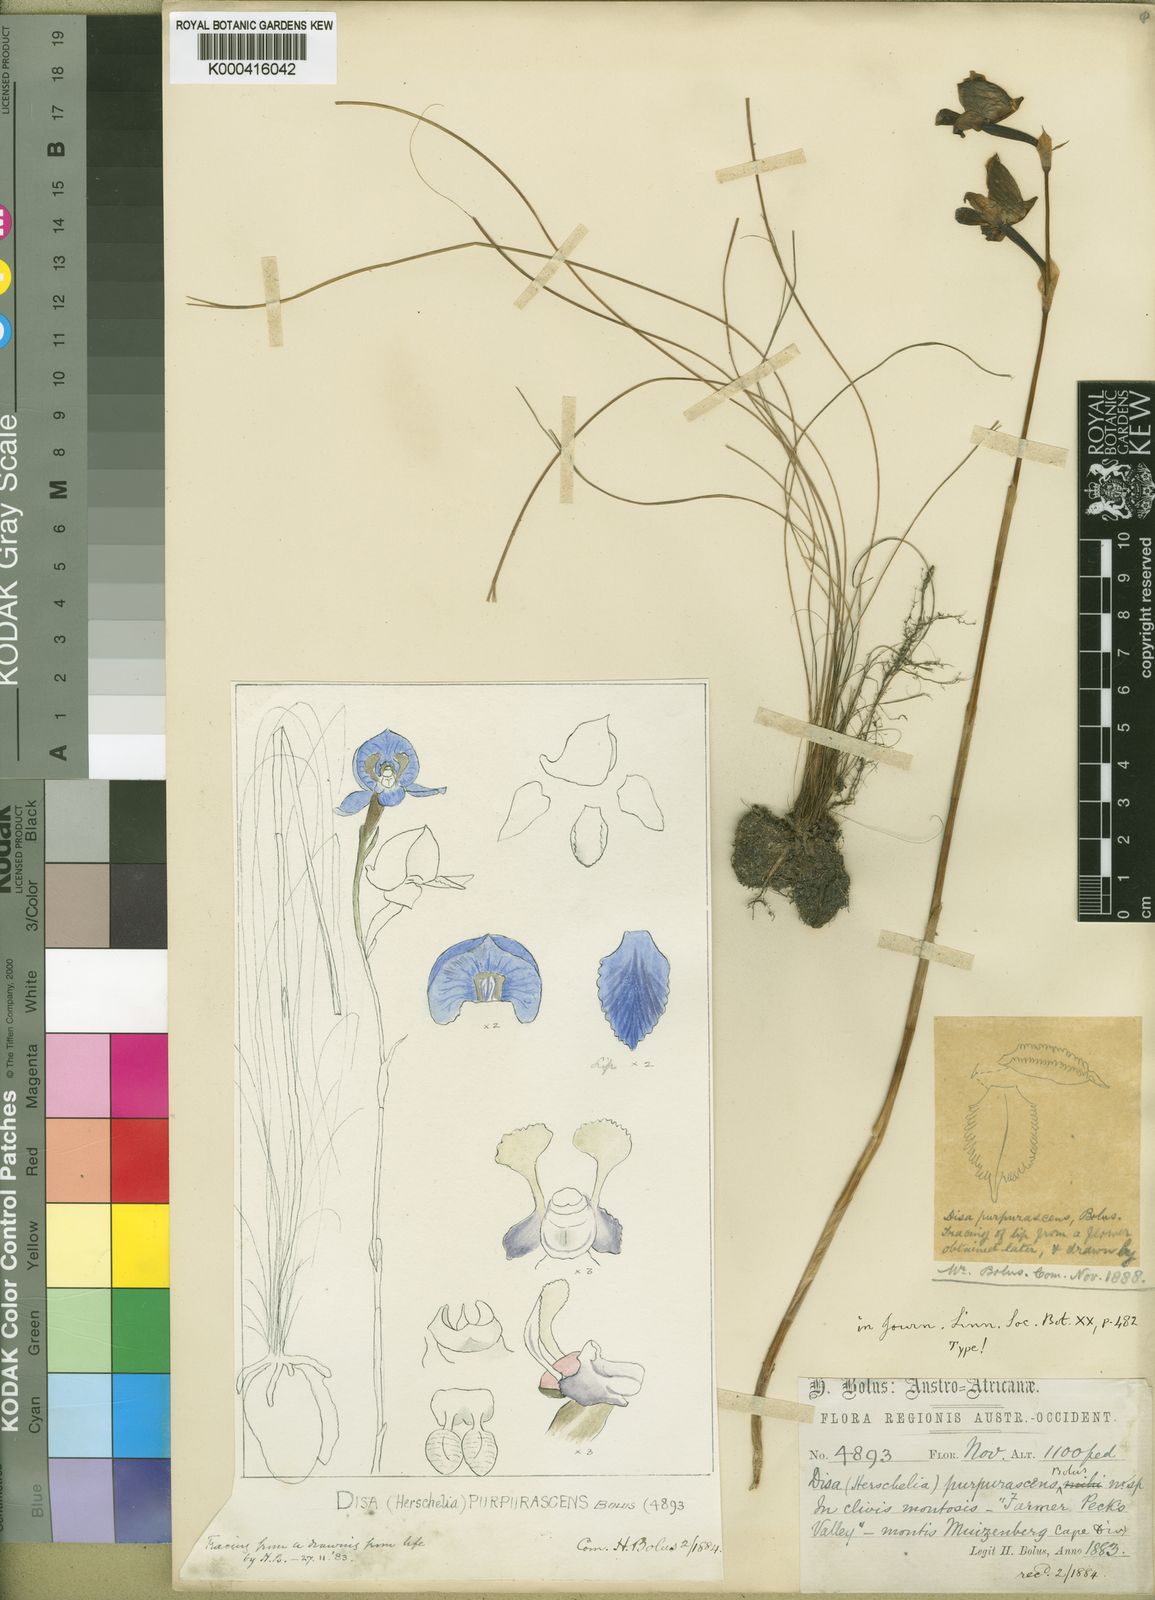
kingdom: Plantae
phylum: Tracheophyta
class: Liliopsida
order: Asparagales
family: Orchidaceae
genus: Disa
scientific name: Disa purpurascens
